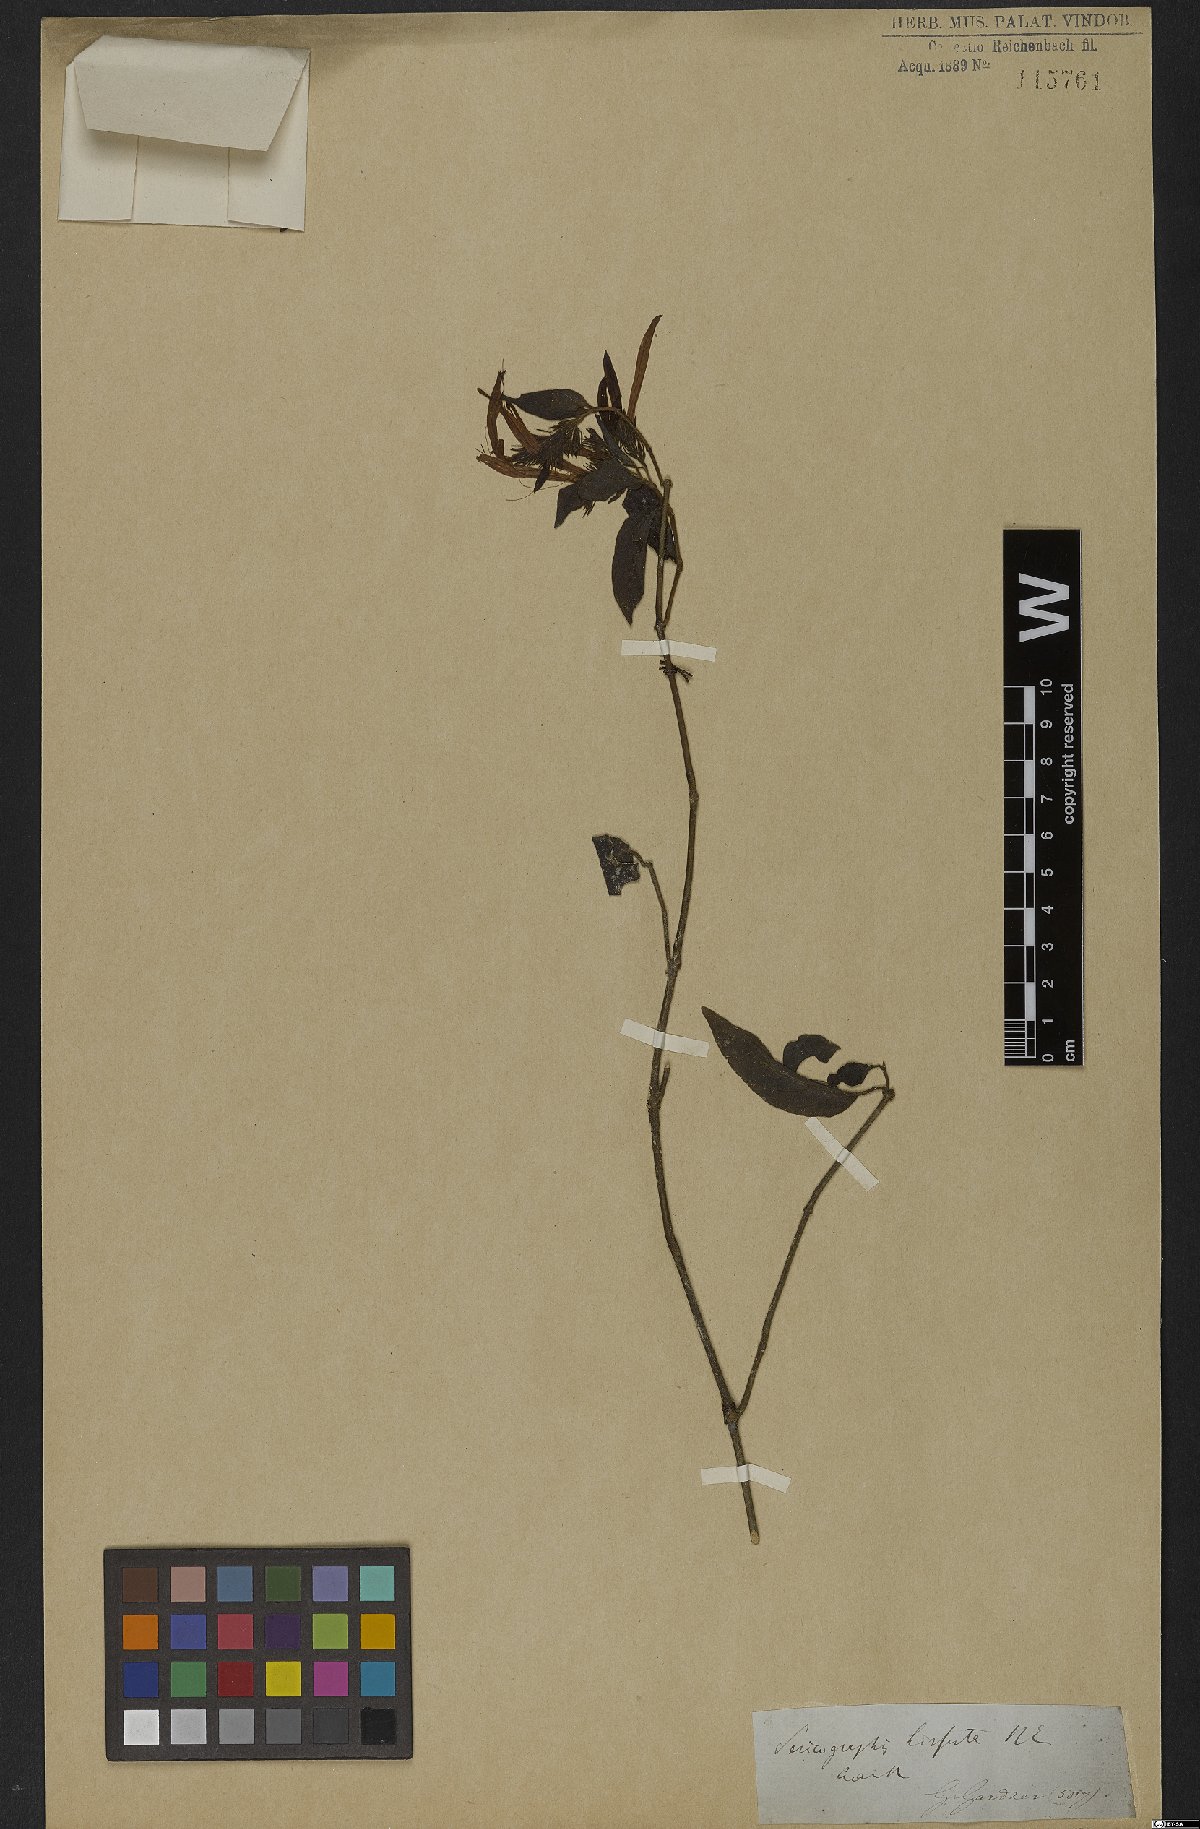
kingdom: Plantae
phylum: Tracheophyta
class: Magnoliopsida
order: Gentianales
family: Rubiaceae
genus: Gonzalagunia
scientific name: Gonzalagunia hirsuta
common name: Mata de mariposa
